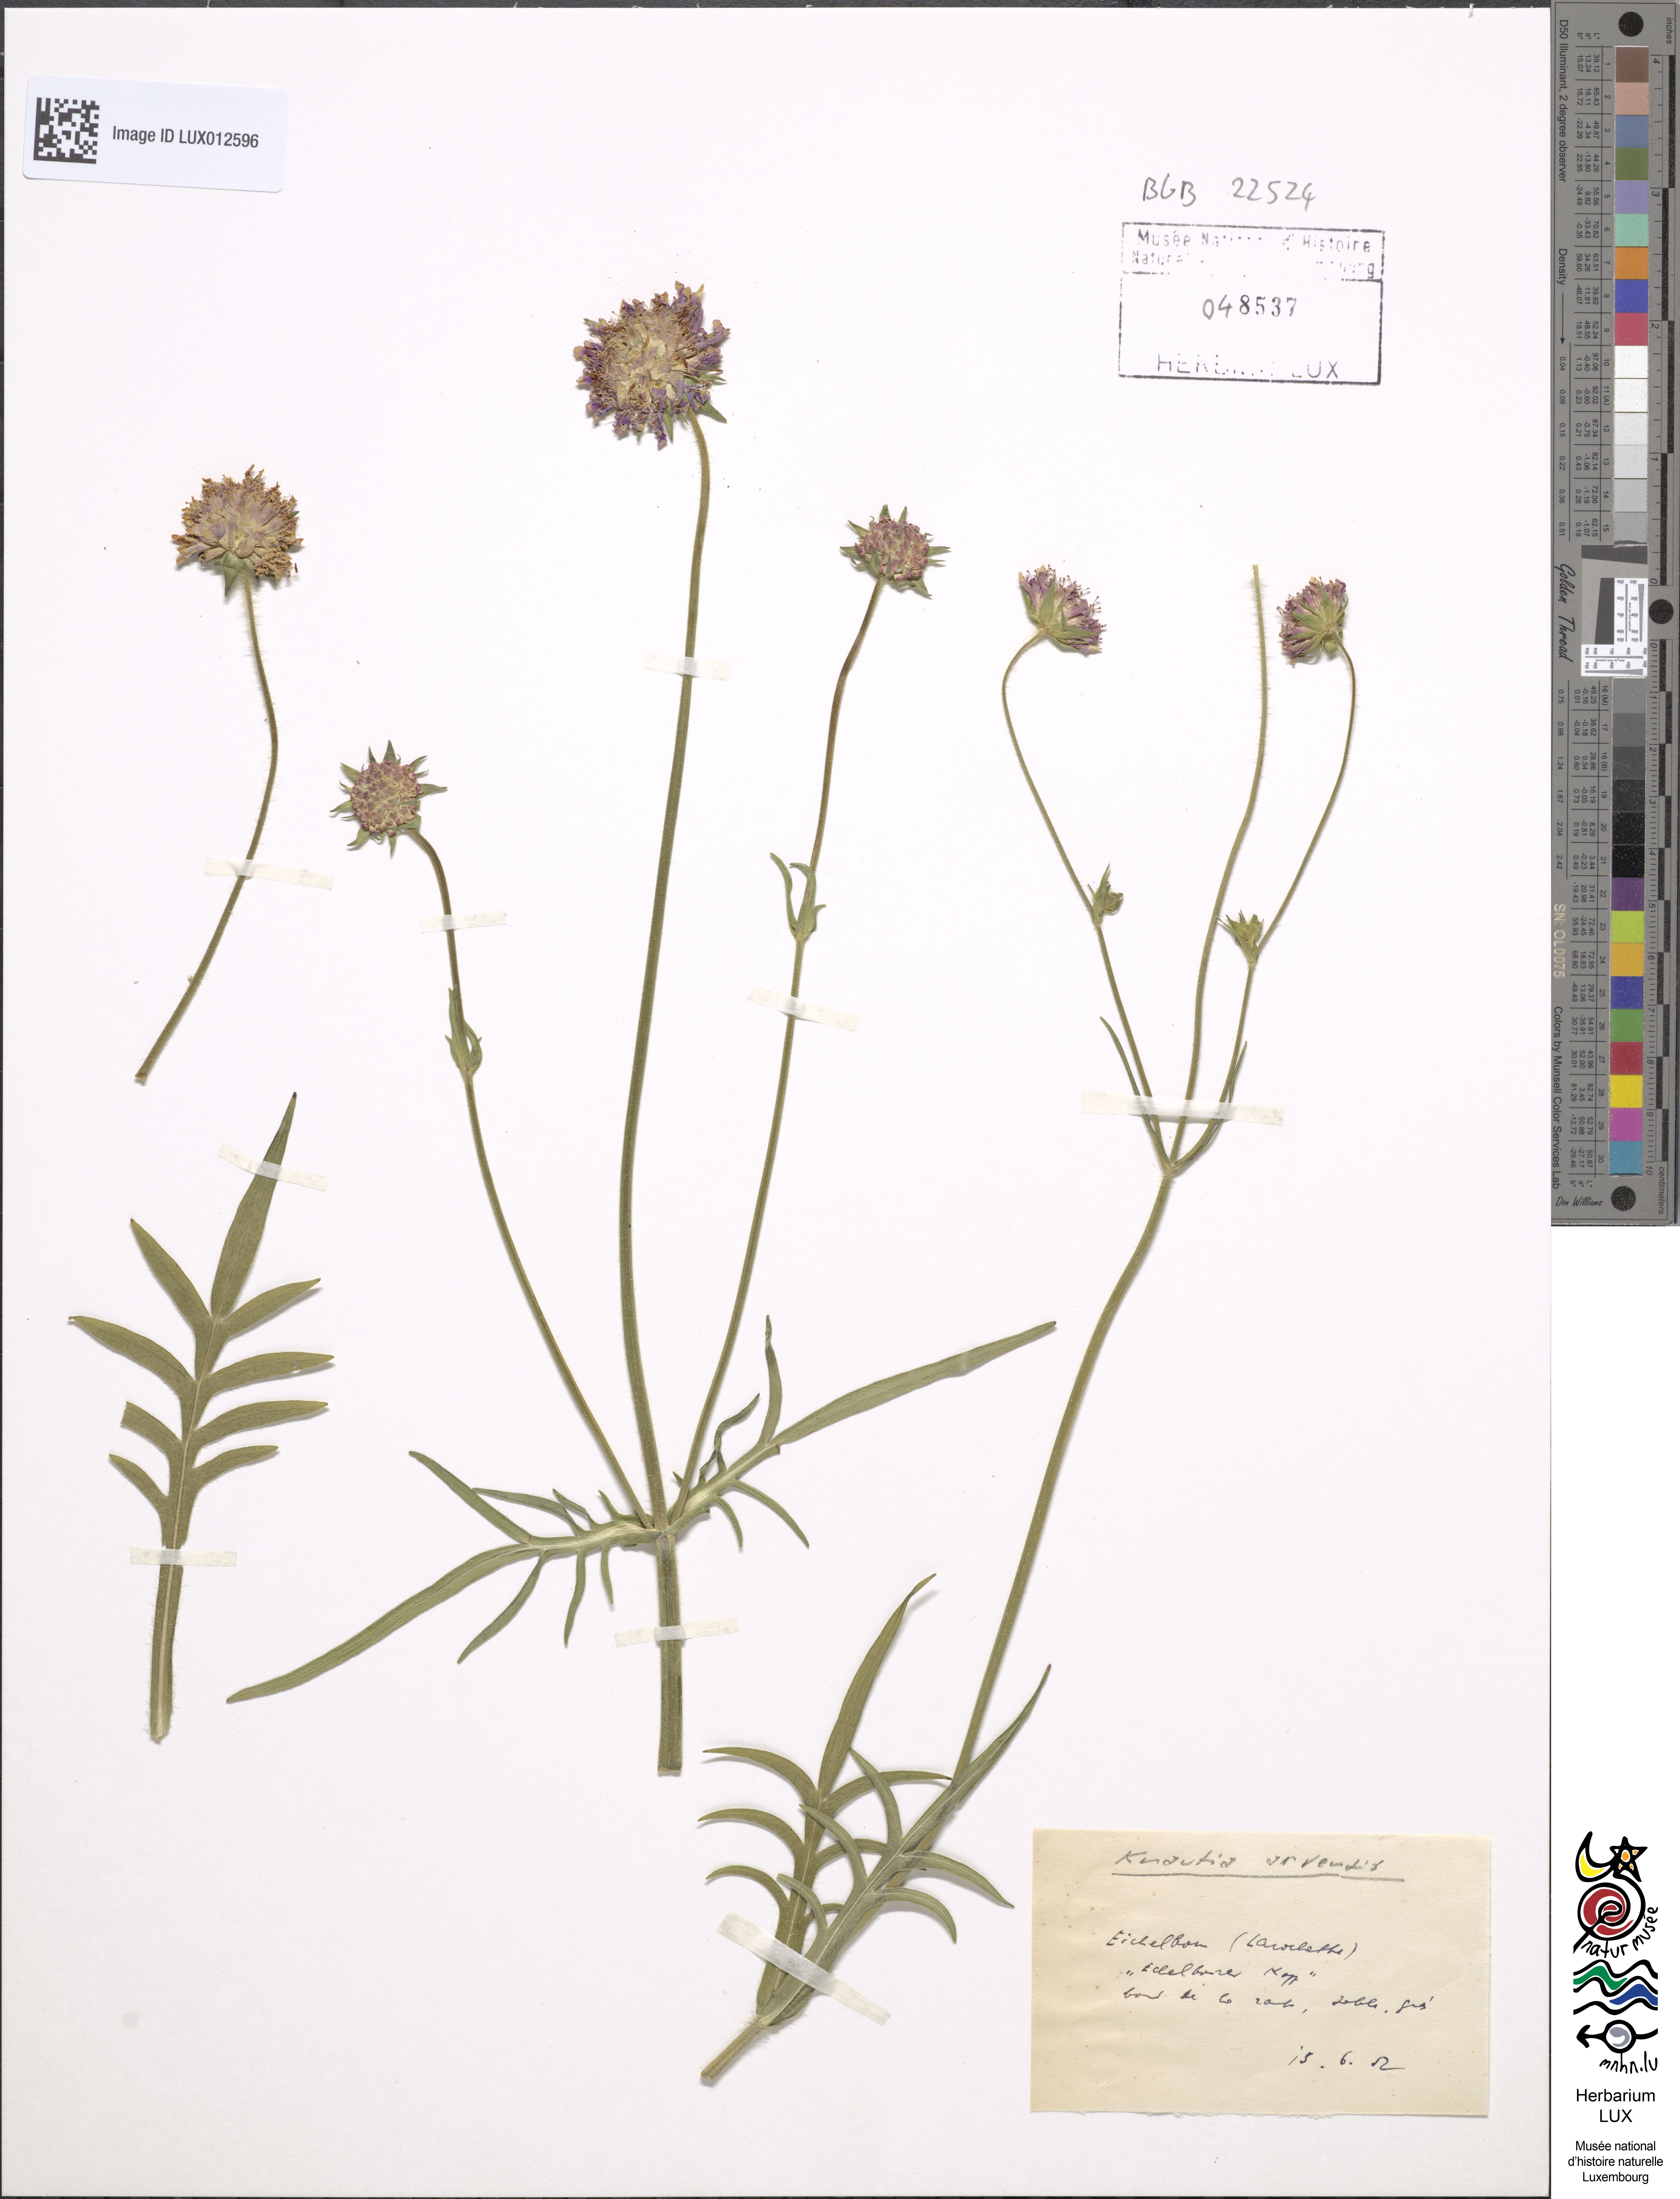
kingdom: Plantae
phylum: Tracheophyta
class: Magnoliopsida
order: Dipsacales
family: Caprifoliaceae
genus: Knautia
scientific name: Knautia arvensis
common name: Field scabiosa
